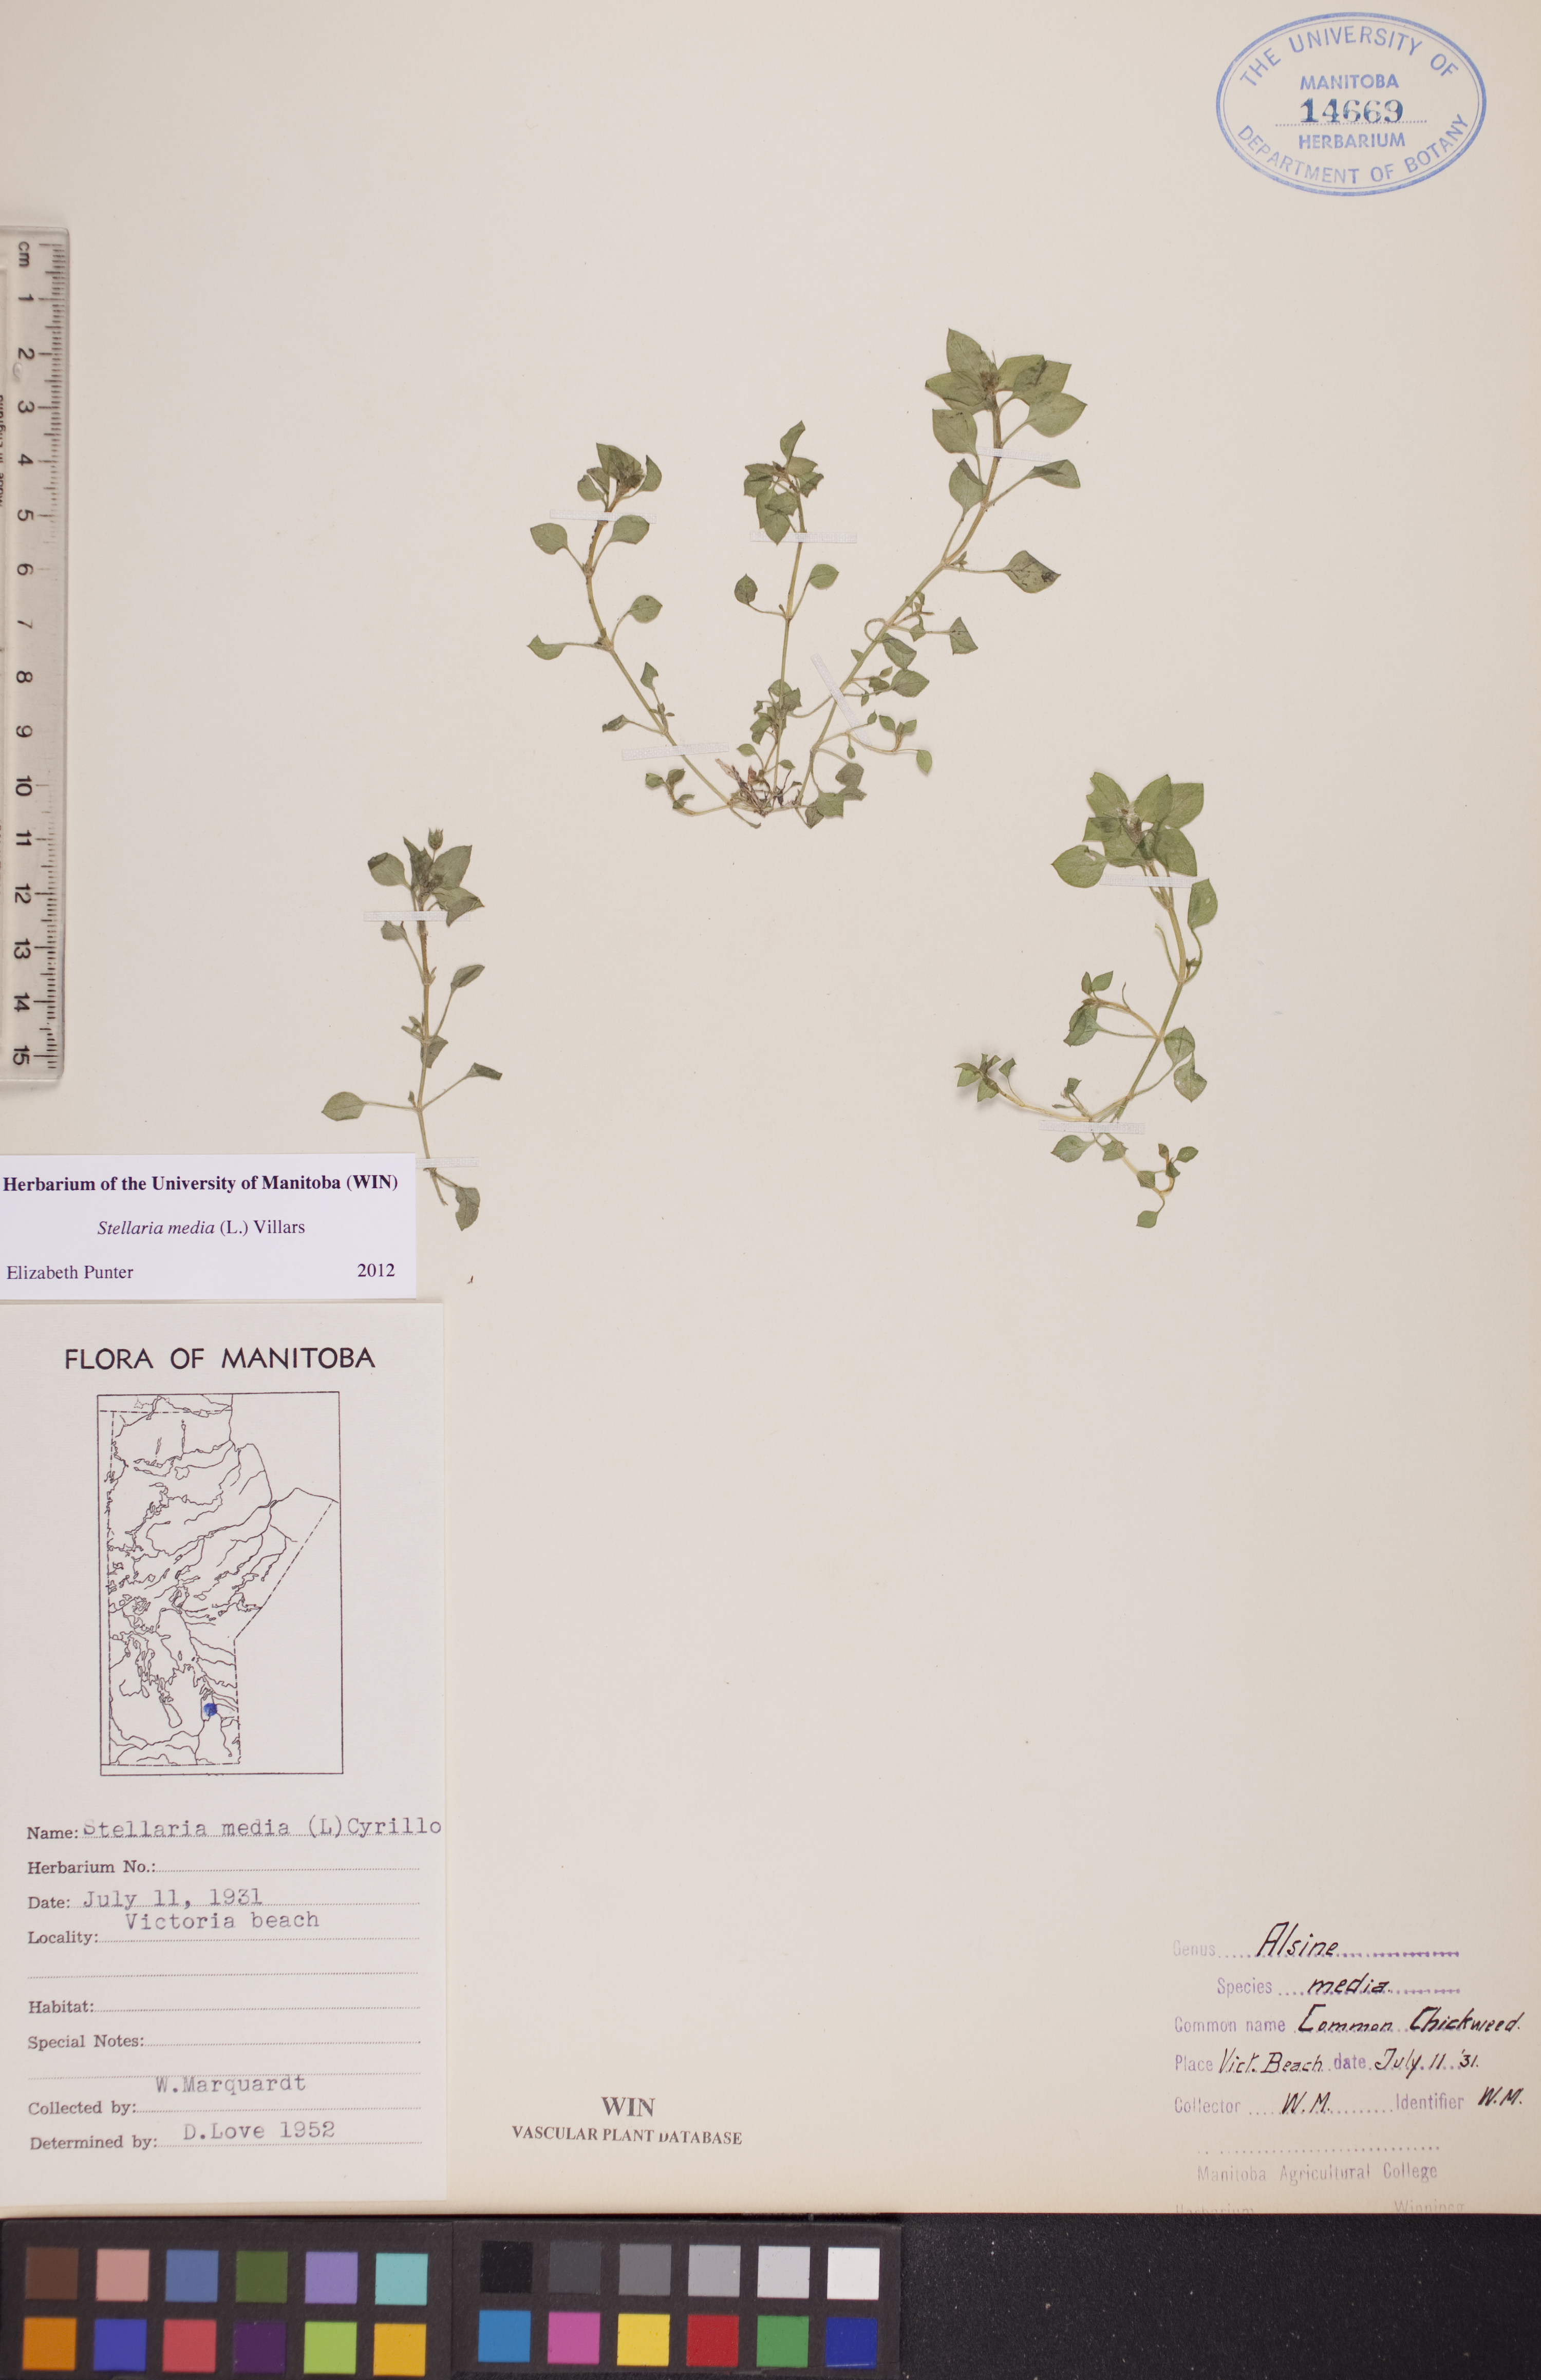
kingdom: Plantae
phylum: Tracheophyta
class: Magnoliopsida
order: Caryophyllales
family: Caryophyllaceae
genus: Stellaria
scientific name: Stellaria media
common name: Common chickweed
